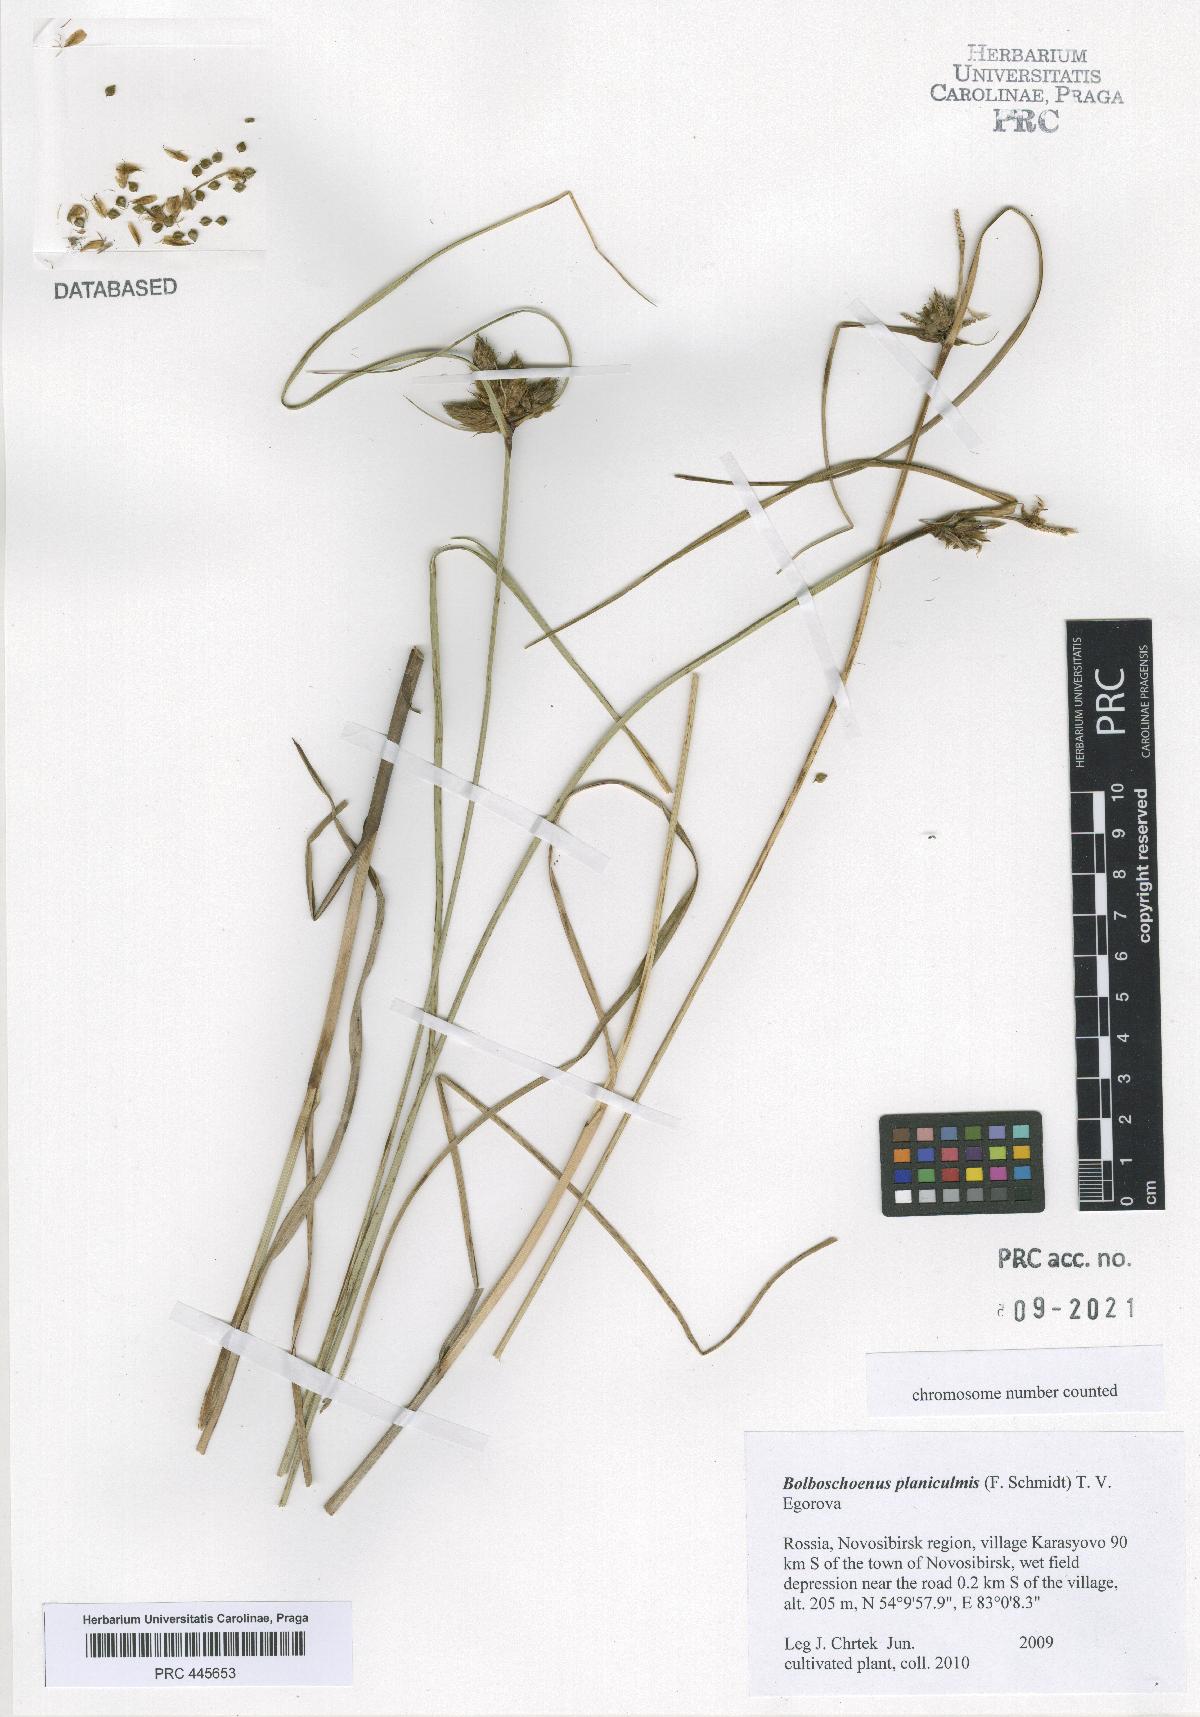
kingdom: Plantae
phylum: Tracheophyta
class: Liliopsida
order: Poales
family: Cyperaceae
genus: Bolboschoenus
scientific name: Bolboschoenus planiculmis
